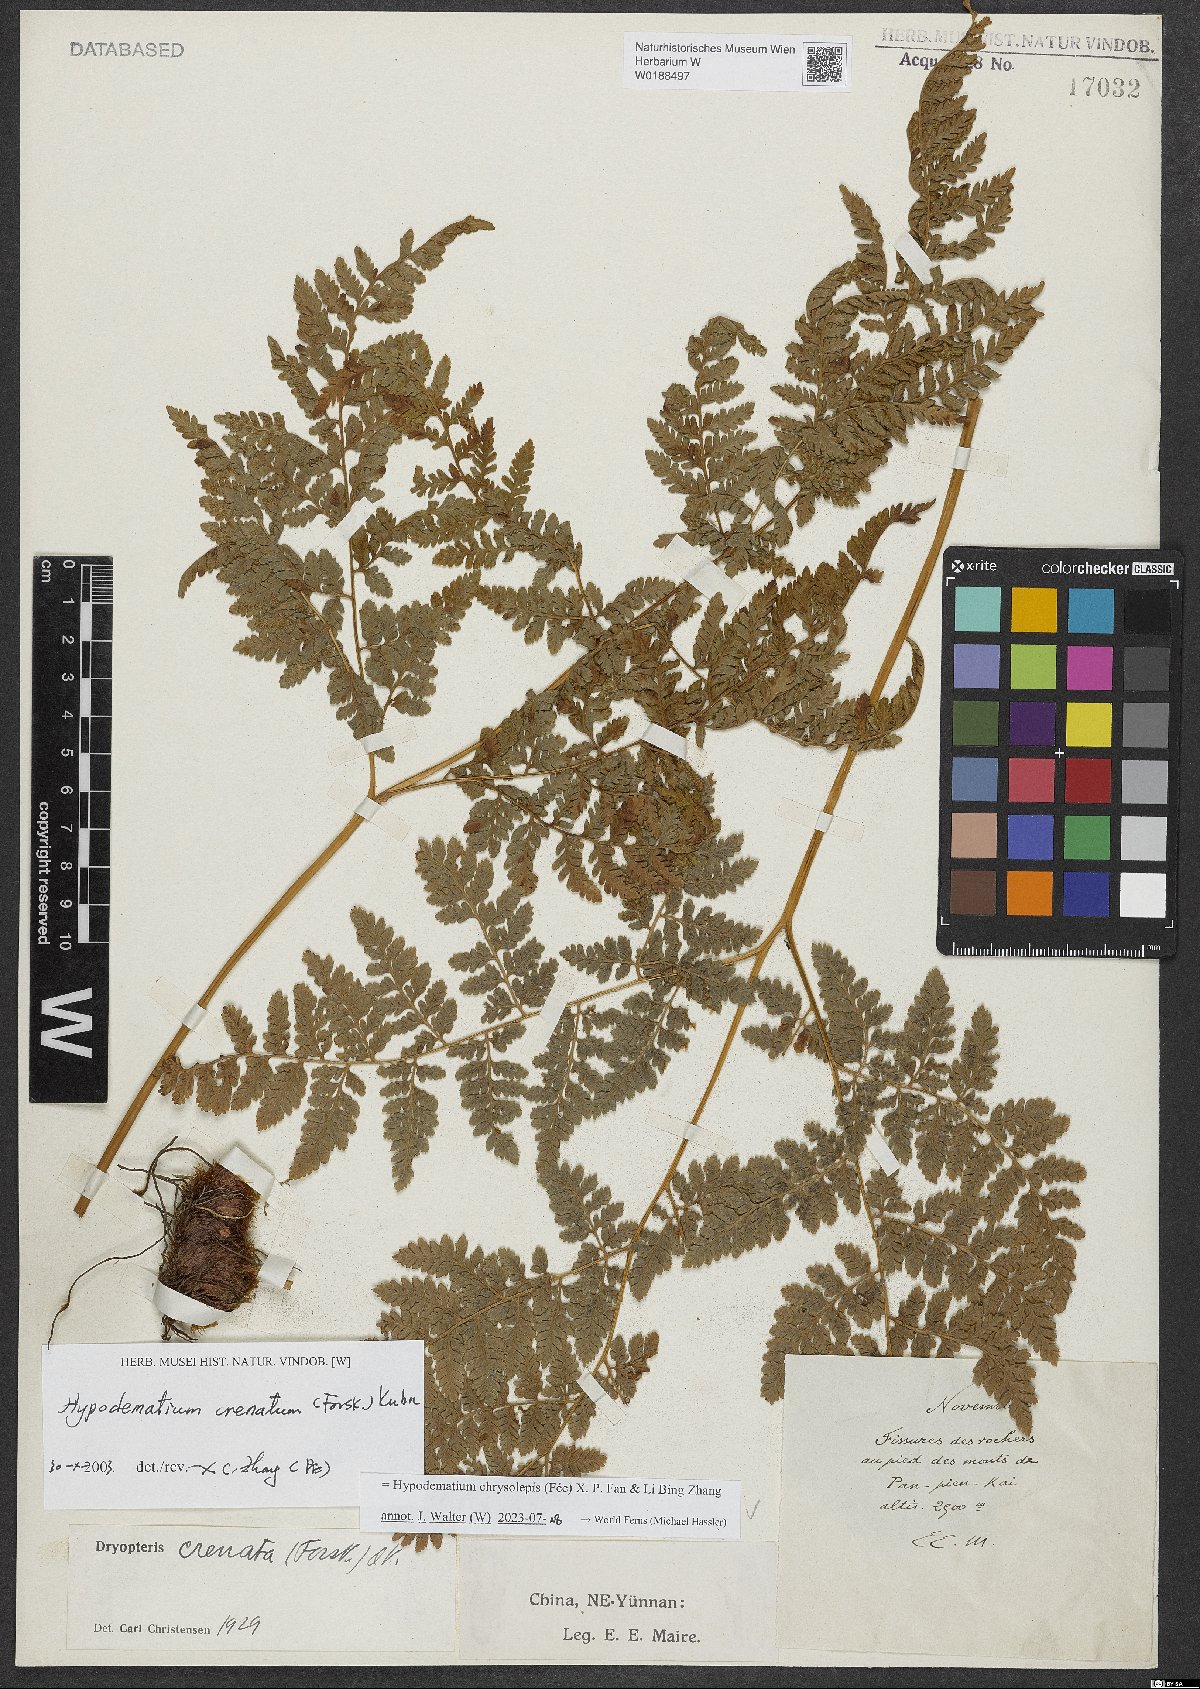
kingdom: Plantae
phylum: Tracheophyta
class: Polypodiopsida
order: Polypodiales
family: Hypodematiaceae
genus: Hypodematium
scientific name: Hypodematium chrysolepis
